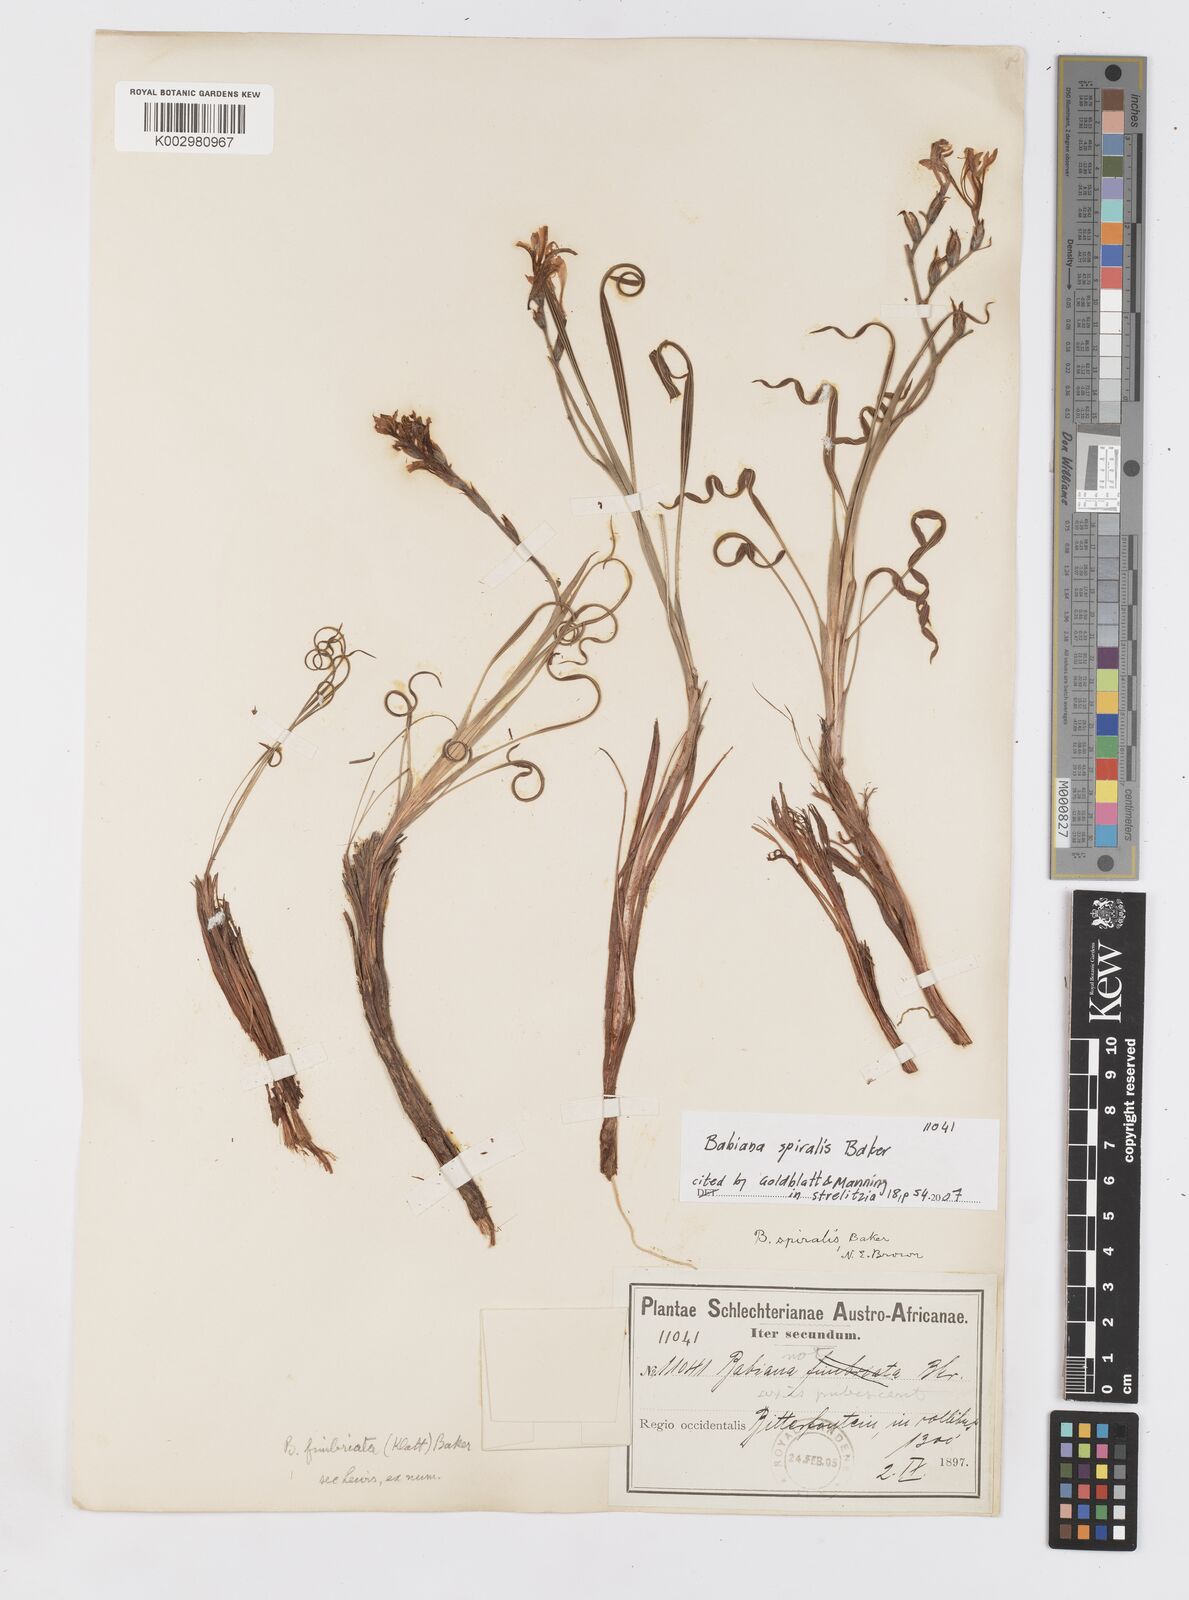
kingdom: Plantae
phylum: Tracheophyta
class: Liliopsida
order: Asparagales
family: Iridaceae
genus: Babiana
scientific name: Babiana spiralis
